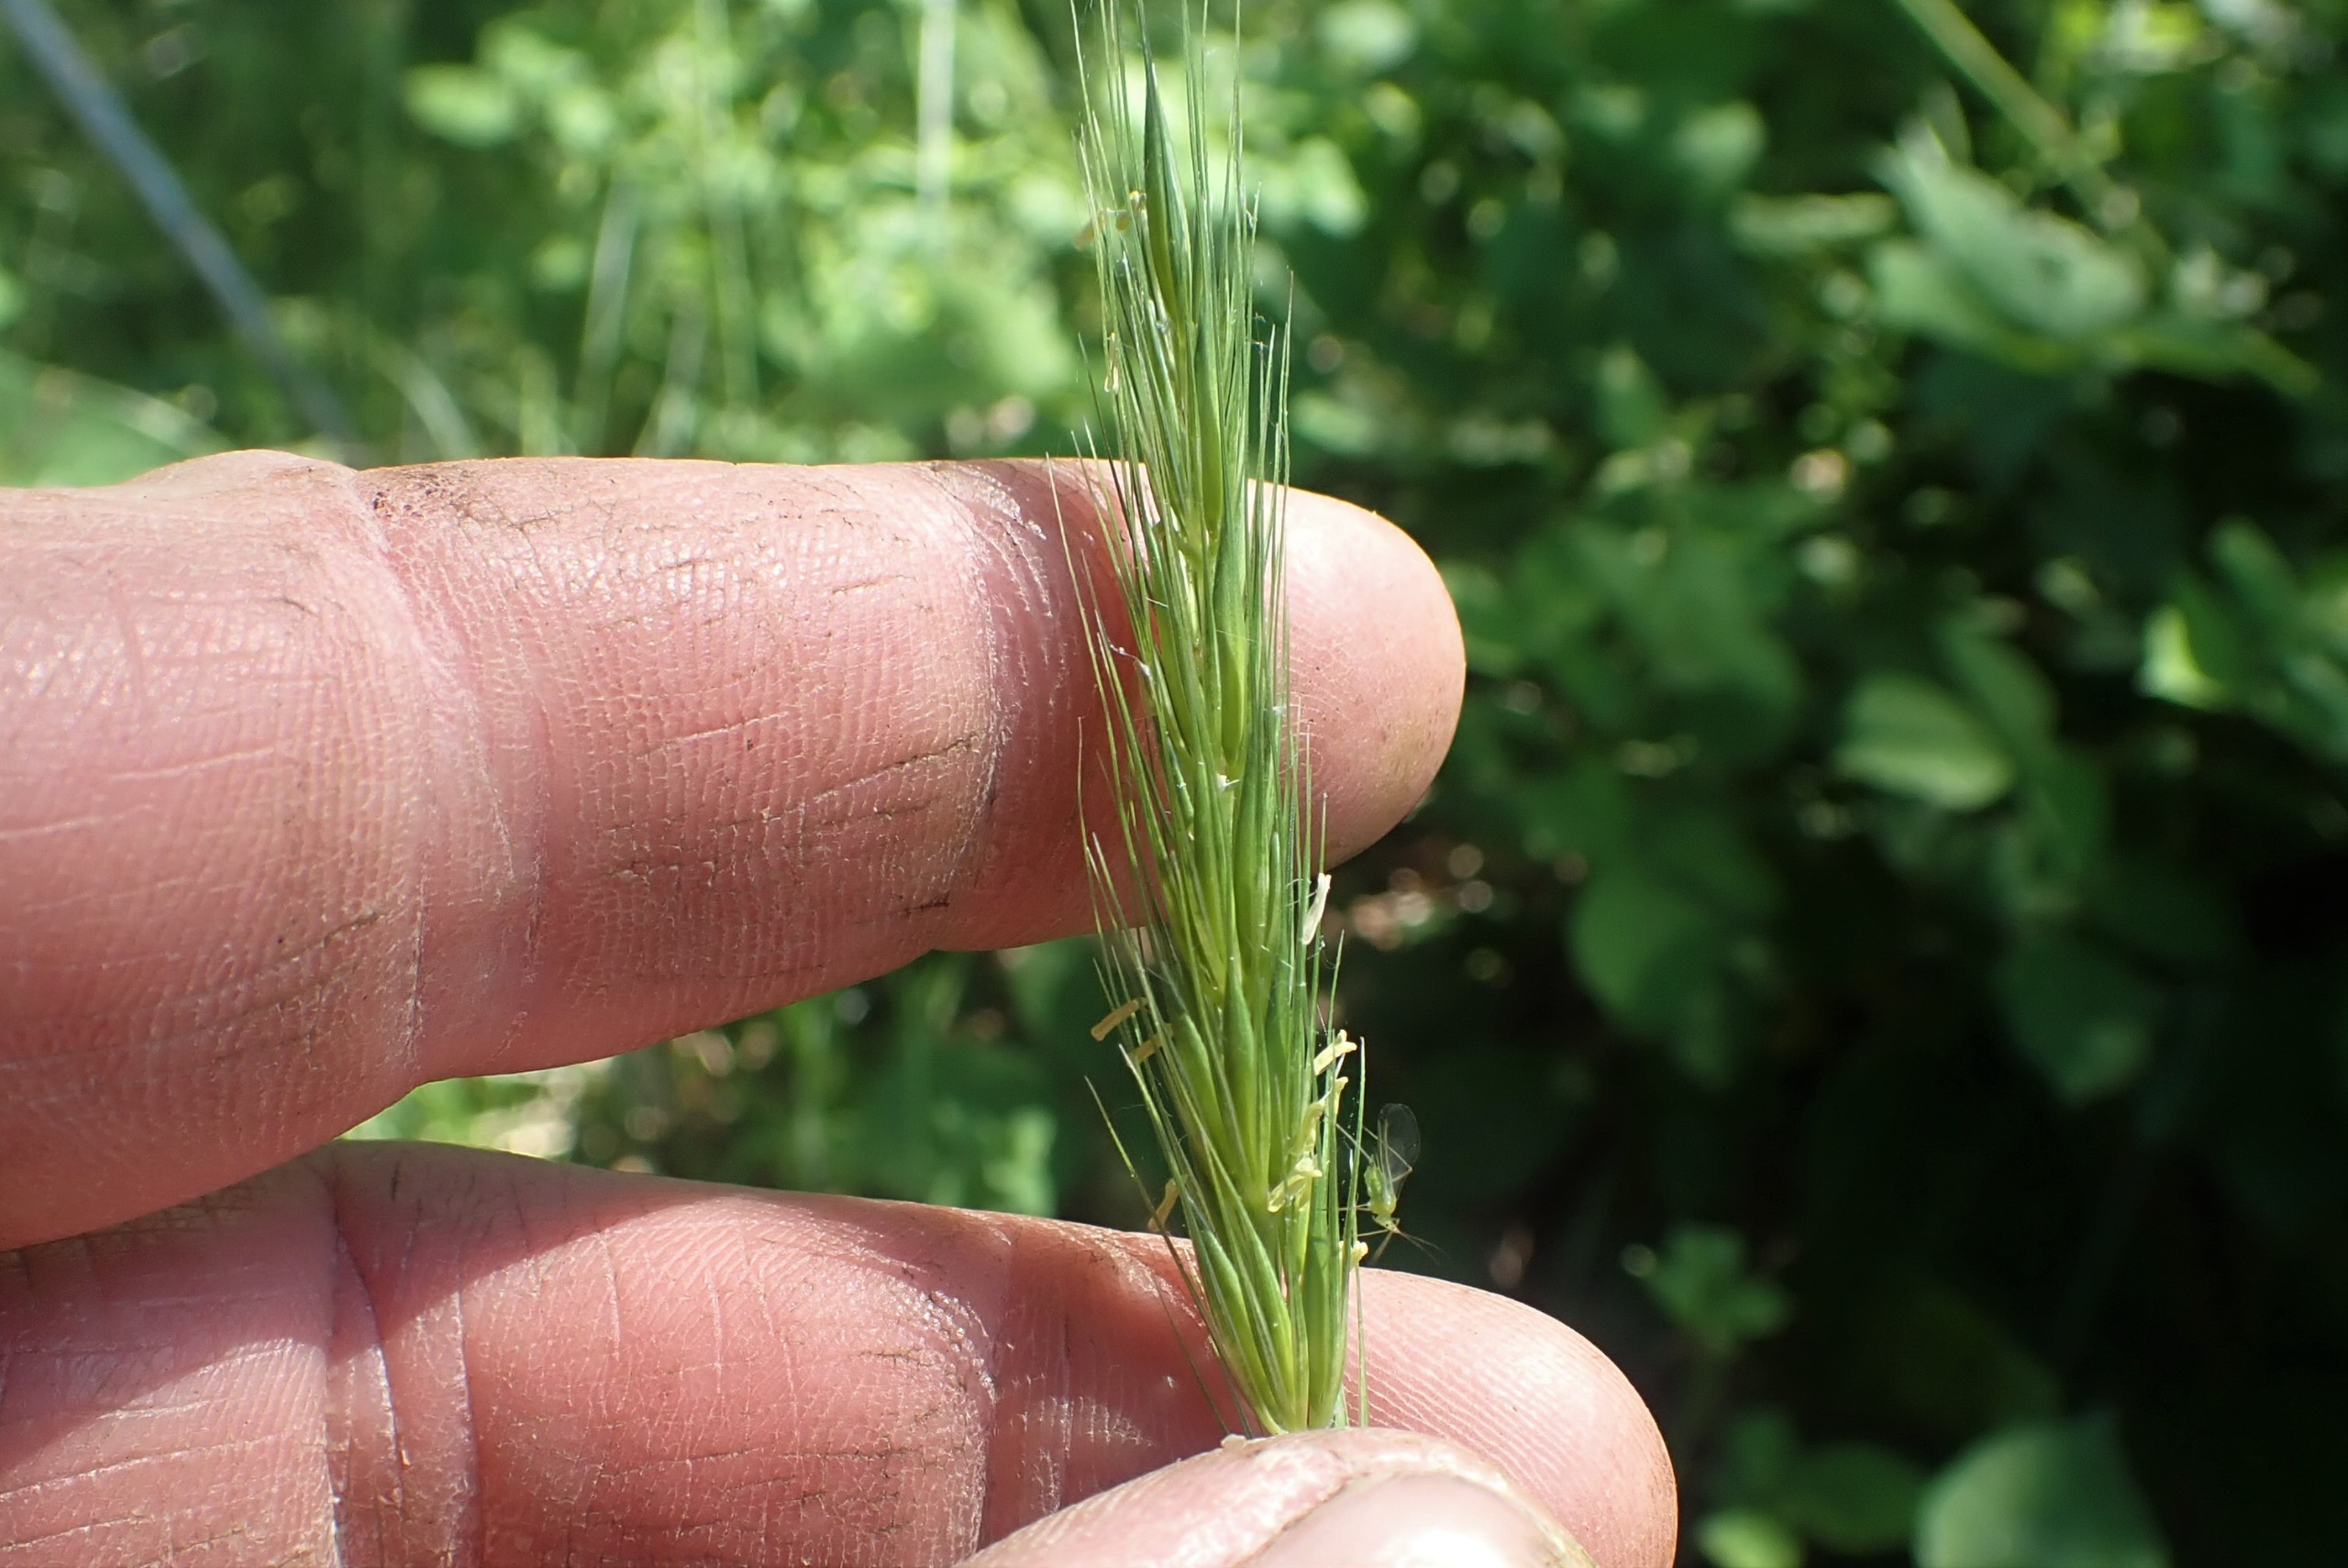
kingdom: Plantae
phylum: Tracheophyta
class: Liliopsida
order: Poales
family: Poaceae
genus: Hordelymus
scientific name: Hordelymus europaeus
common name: Skovbyg
